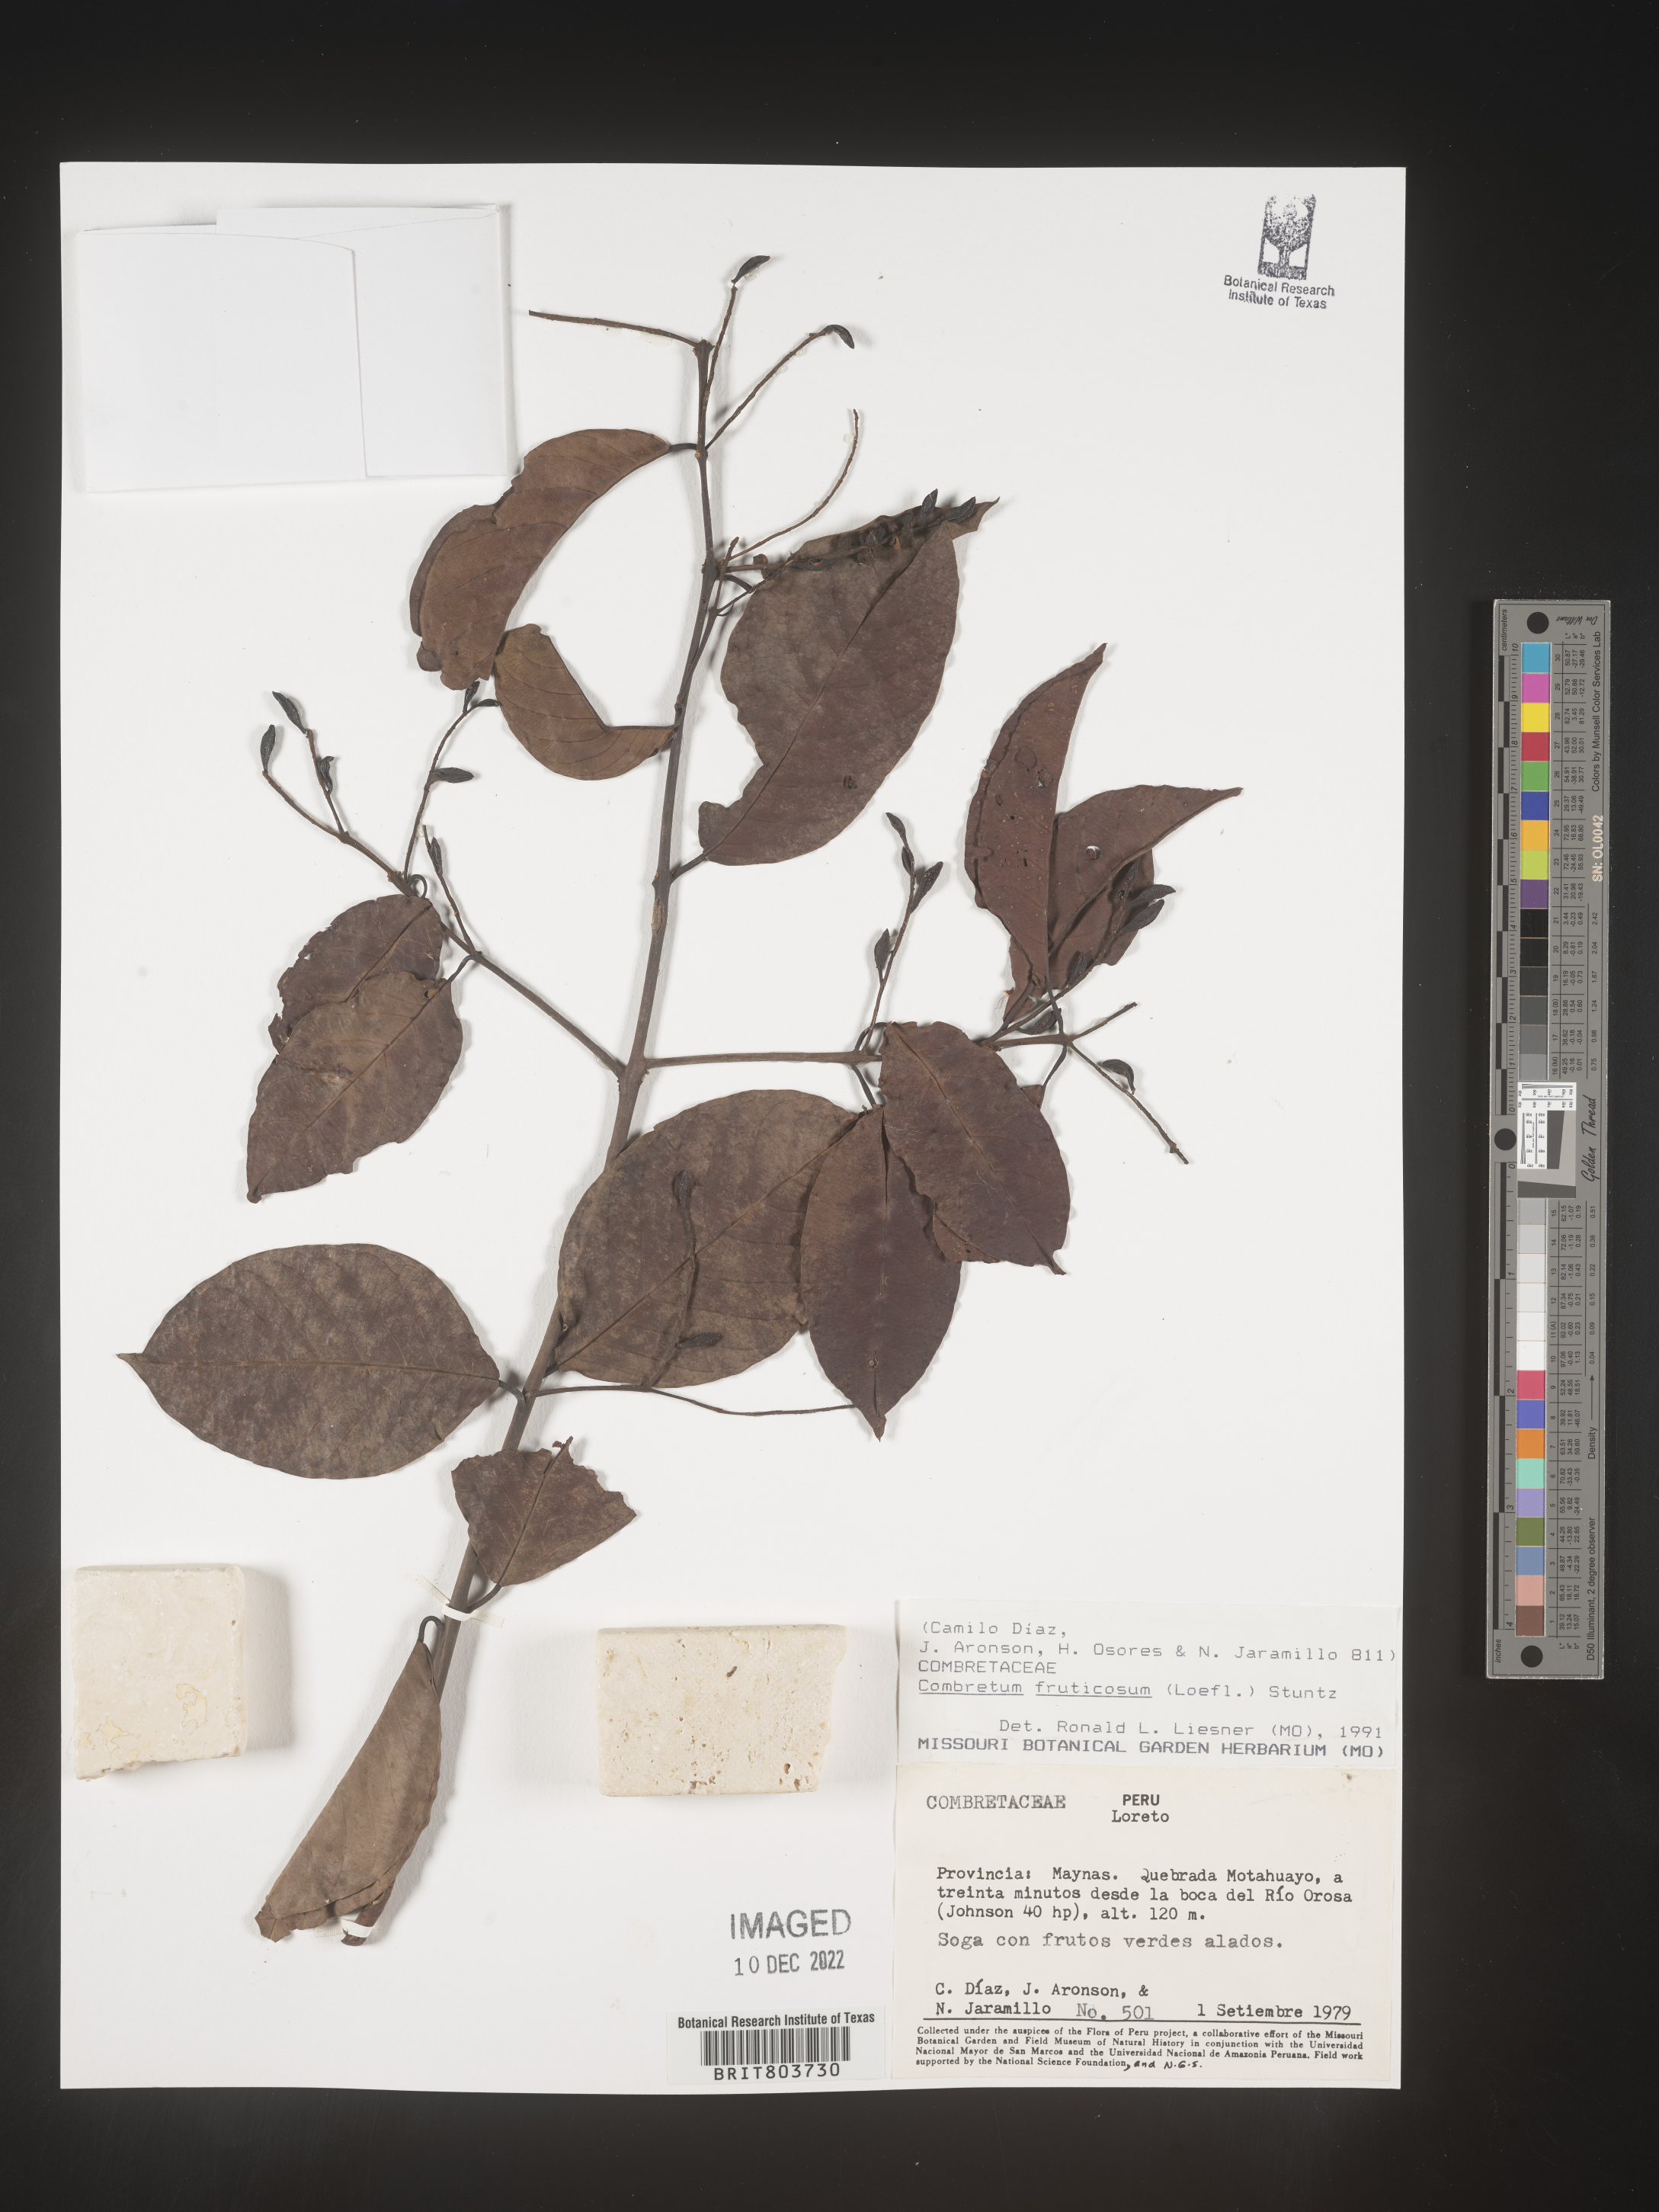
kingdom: Plantae
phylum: Tracheophyta
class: Magnoliopsida
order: Myrtales
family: Combretaceae
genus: Combretum
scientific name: Combretum
